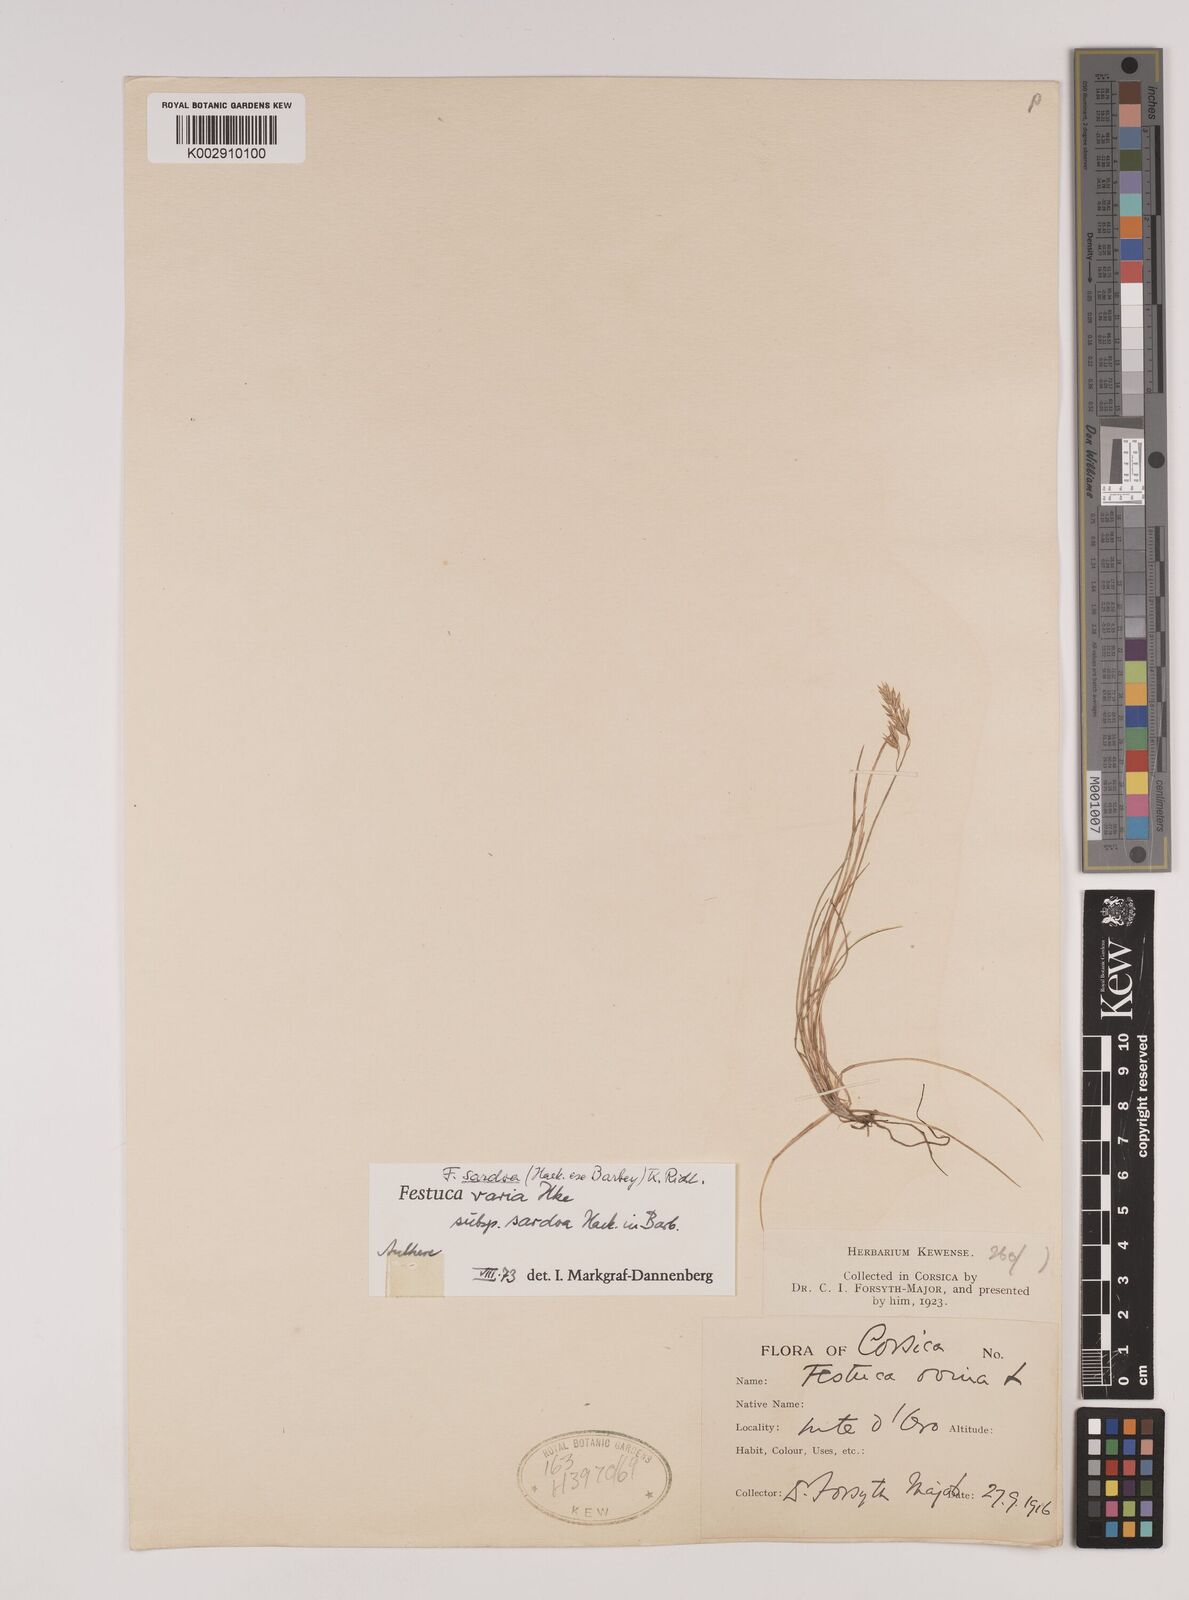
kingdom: Plantae
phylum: Tracheophyta
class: Liliopsida
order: Poales
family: Poaceae
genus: Festuca
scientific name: Festuca sardoa
